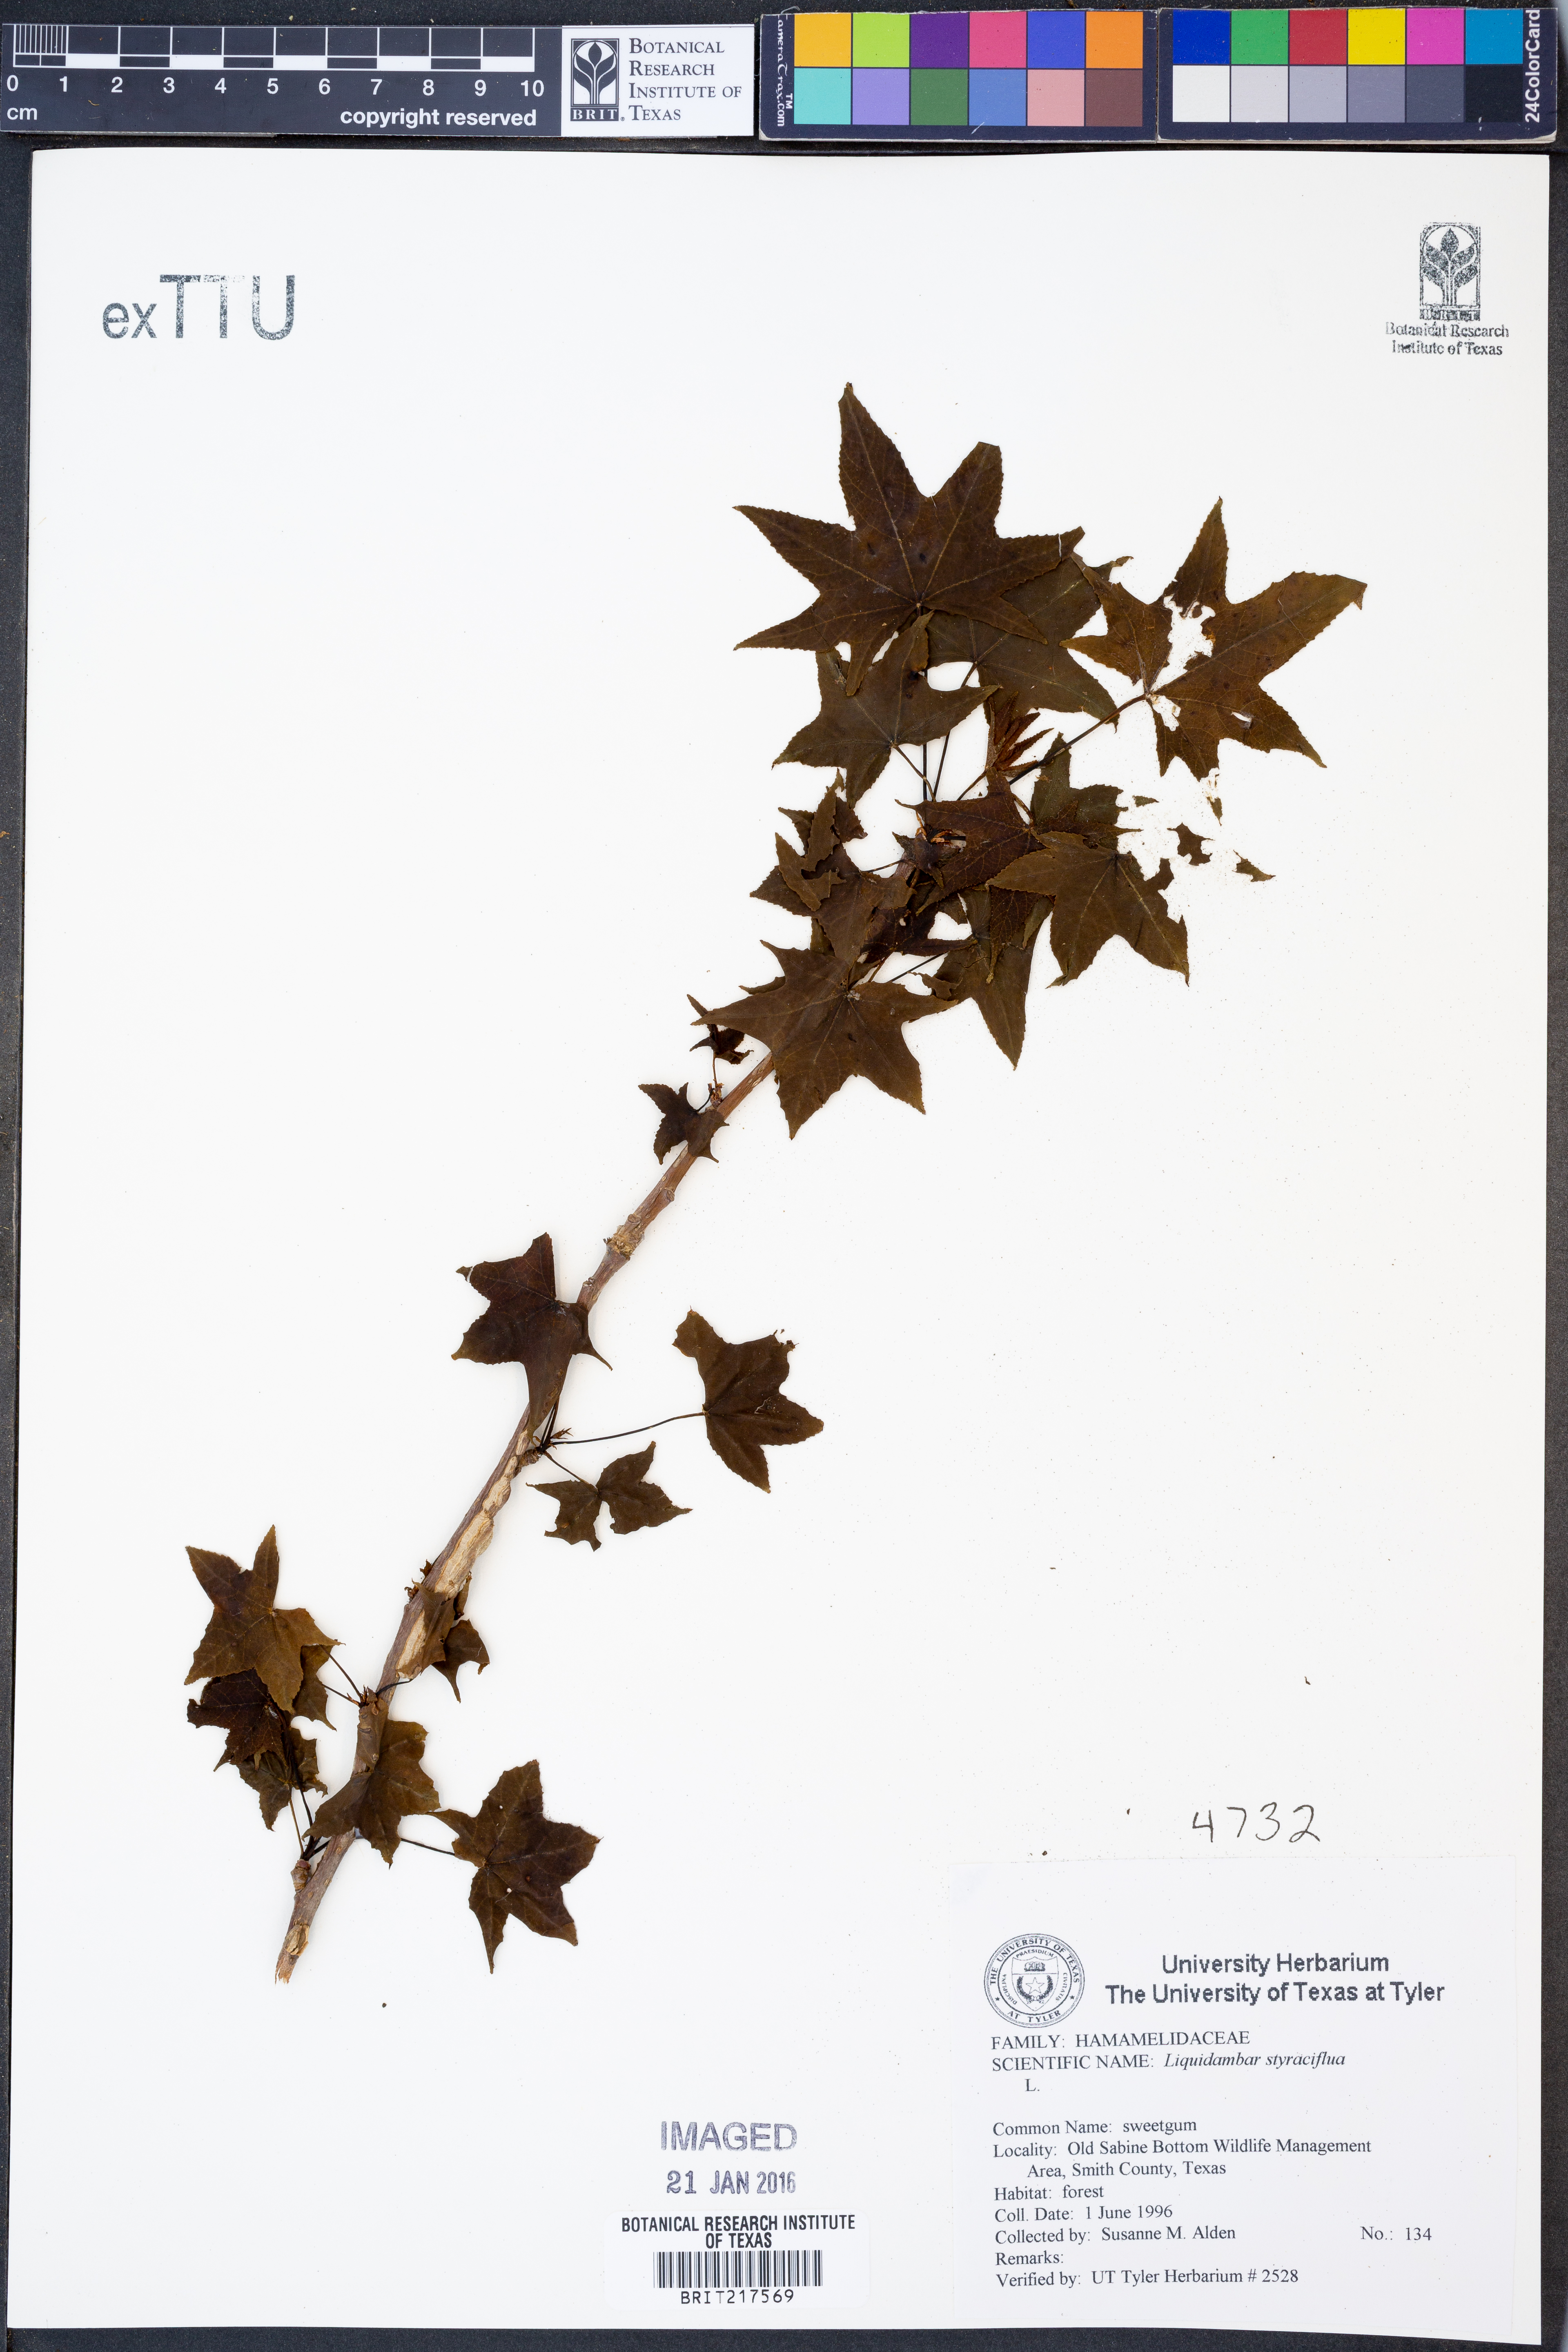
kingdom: Plantae
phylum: Tracheophyta
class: Magnoliopsida
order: Saxifragales
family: Altingiaceae
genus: Liquidambar
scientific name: Liquidambar styraciflua
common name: Sweet gum
